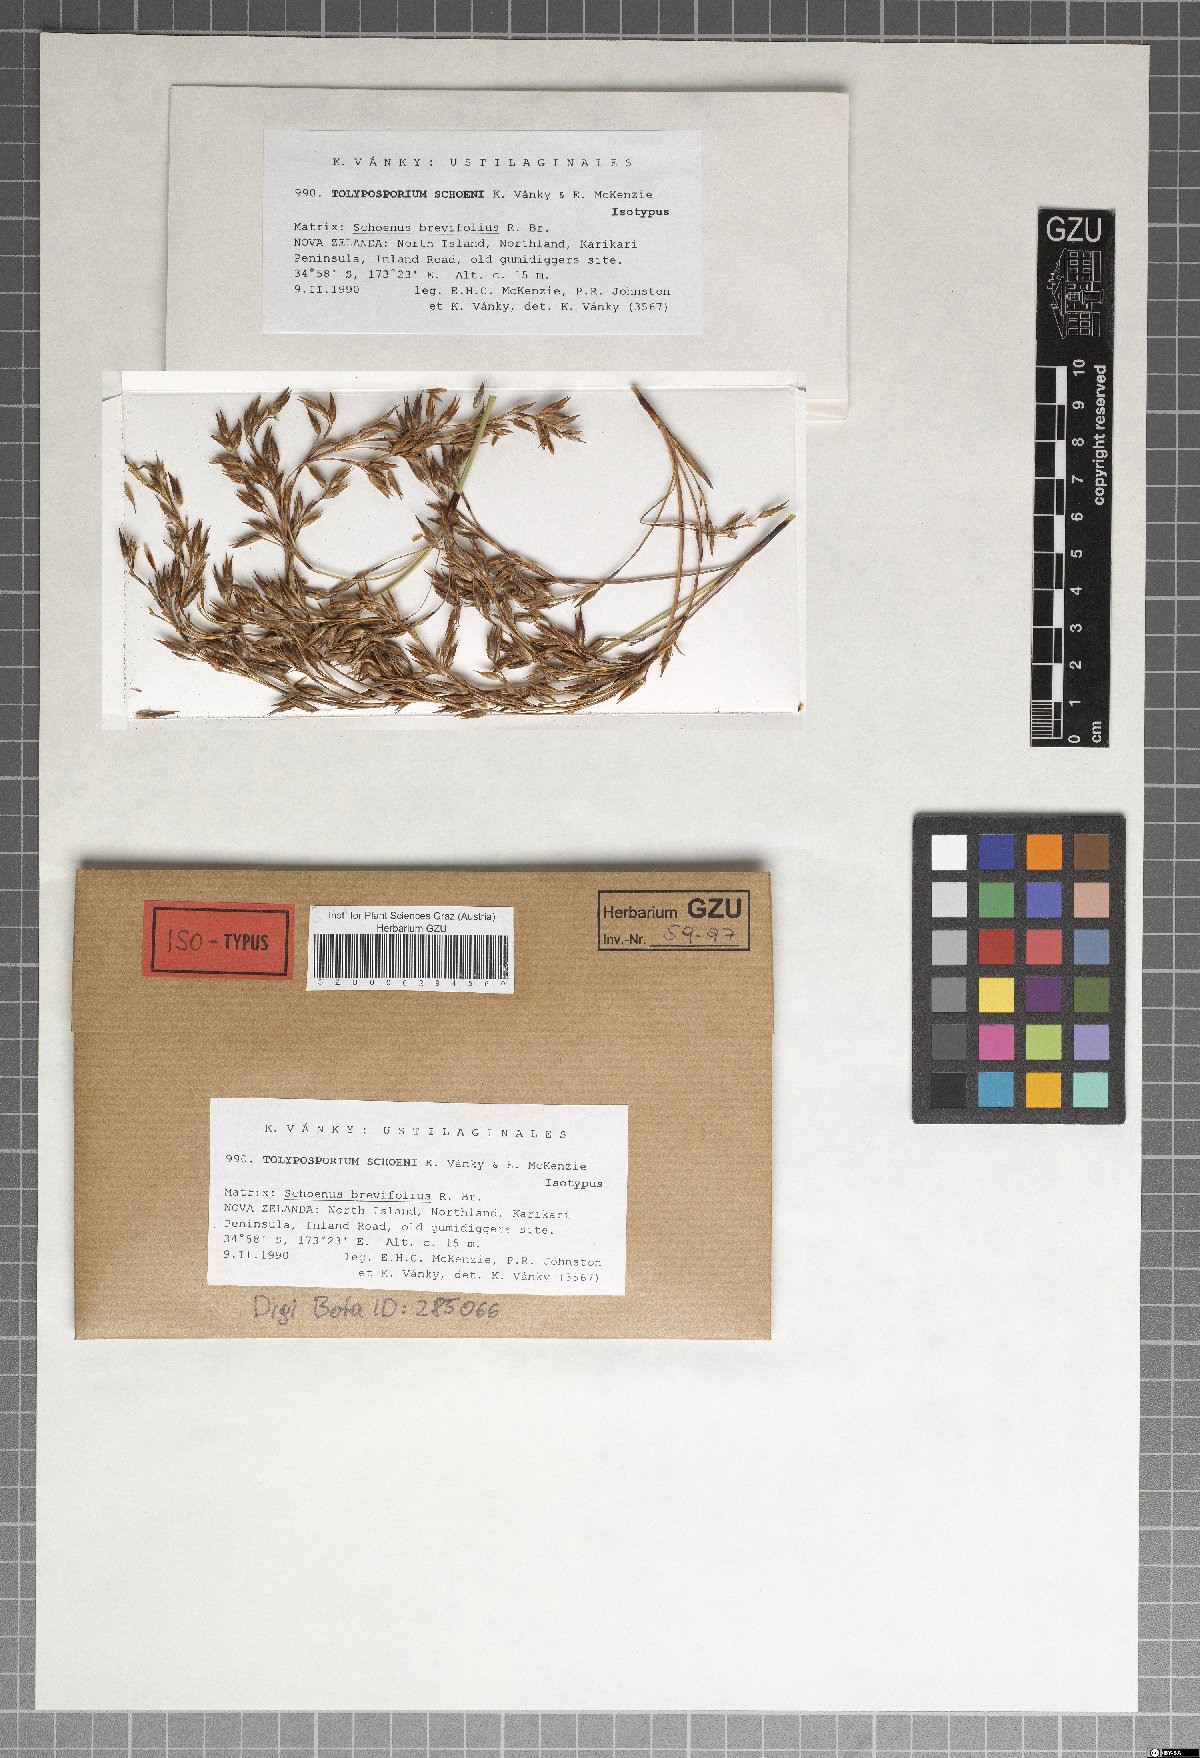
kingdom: Fungi
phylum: Basidiomycota
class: Ustilaginomycetes
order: Ustilaginales
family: Anthracoideaceae
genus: Moreaua
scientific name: Moreaua schoeni
